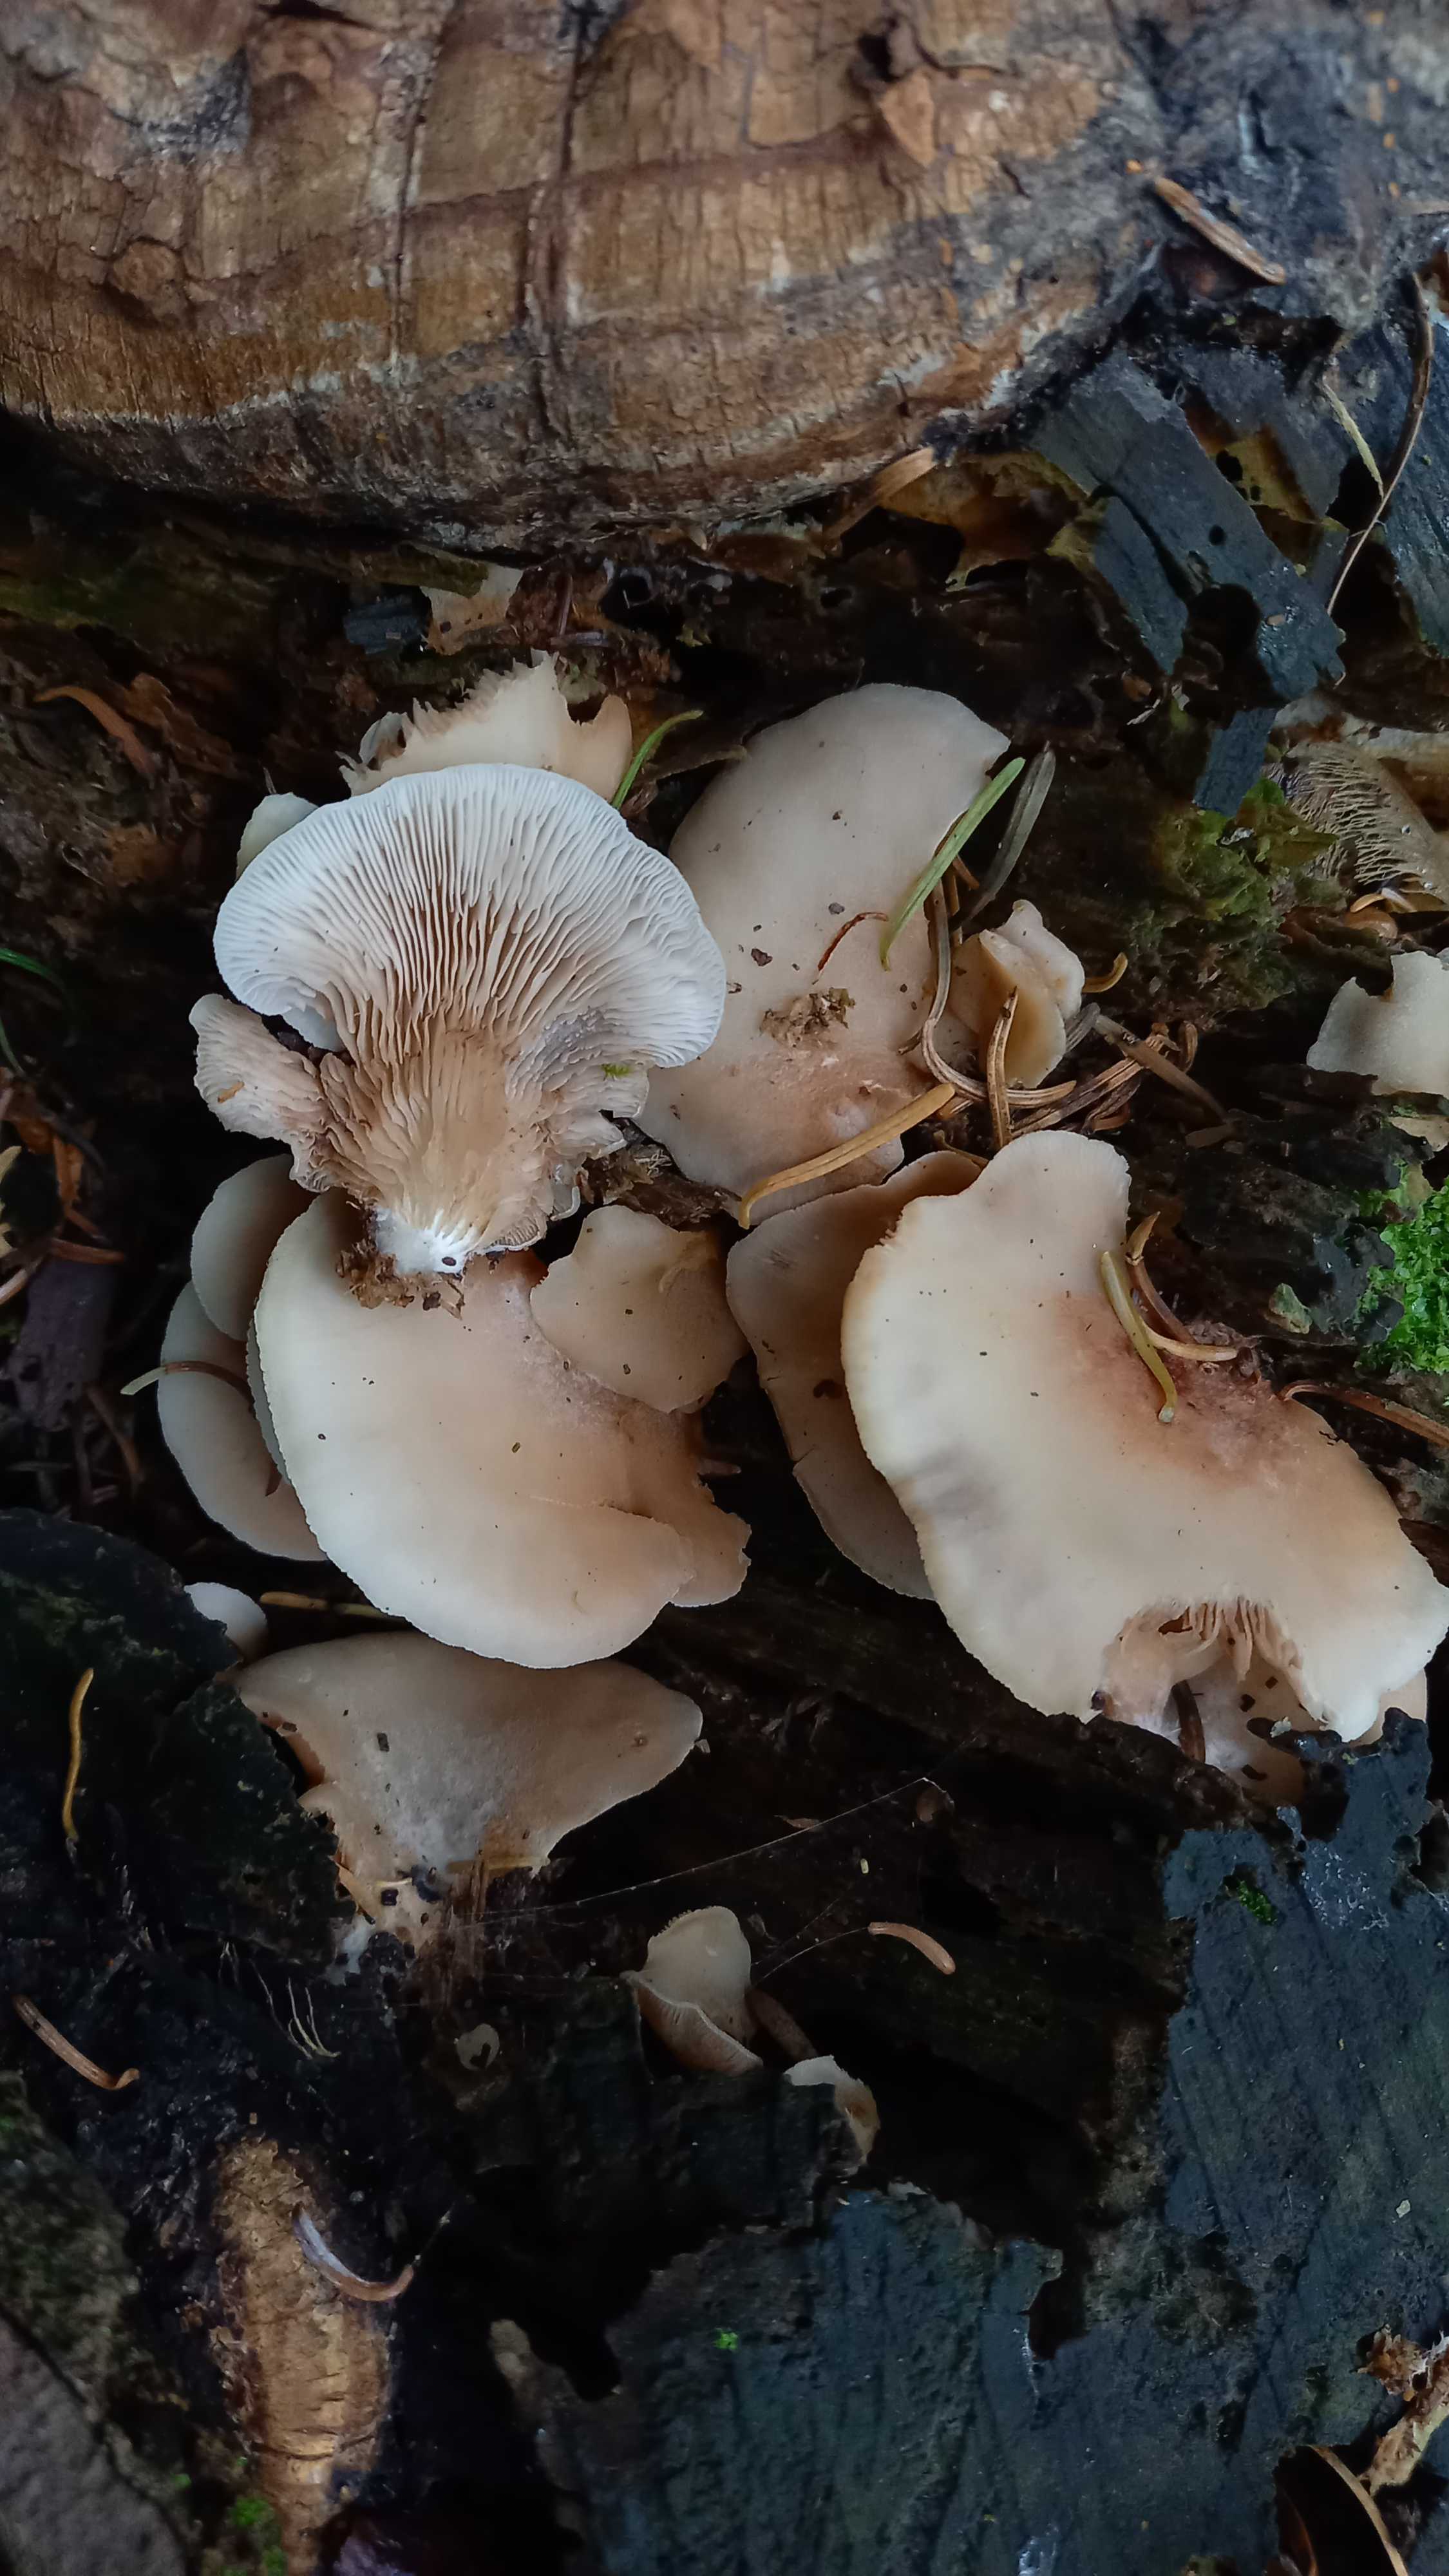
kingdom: Fungi
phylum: Basidiomycota
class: Agaricomycetes
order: Agaricales
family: Crepidotaceae
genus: Crepidotus
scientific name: Crepidotus
